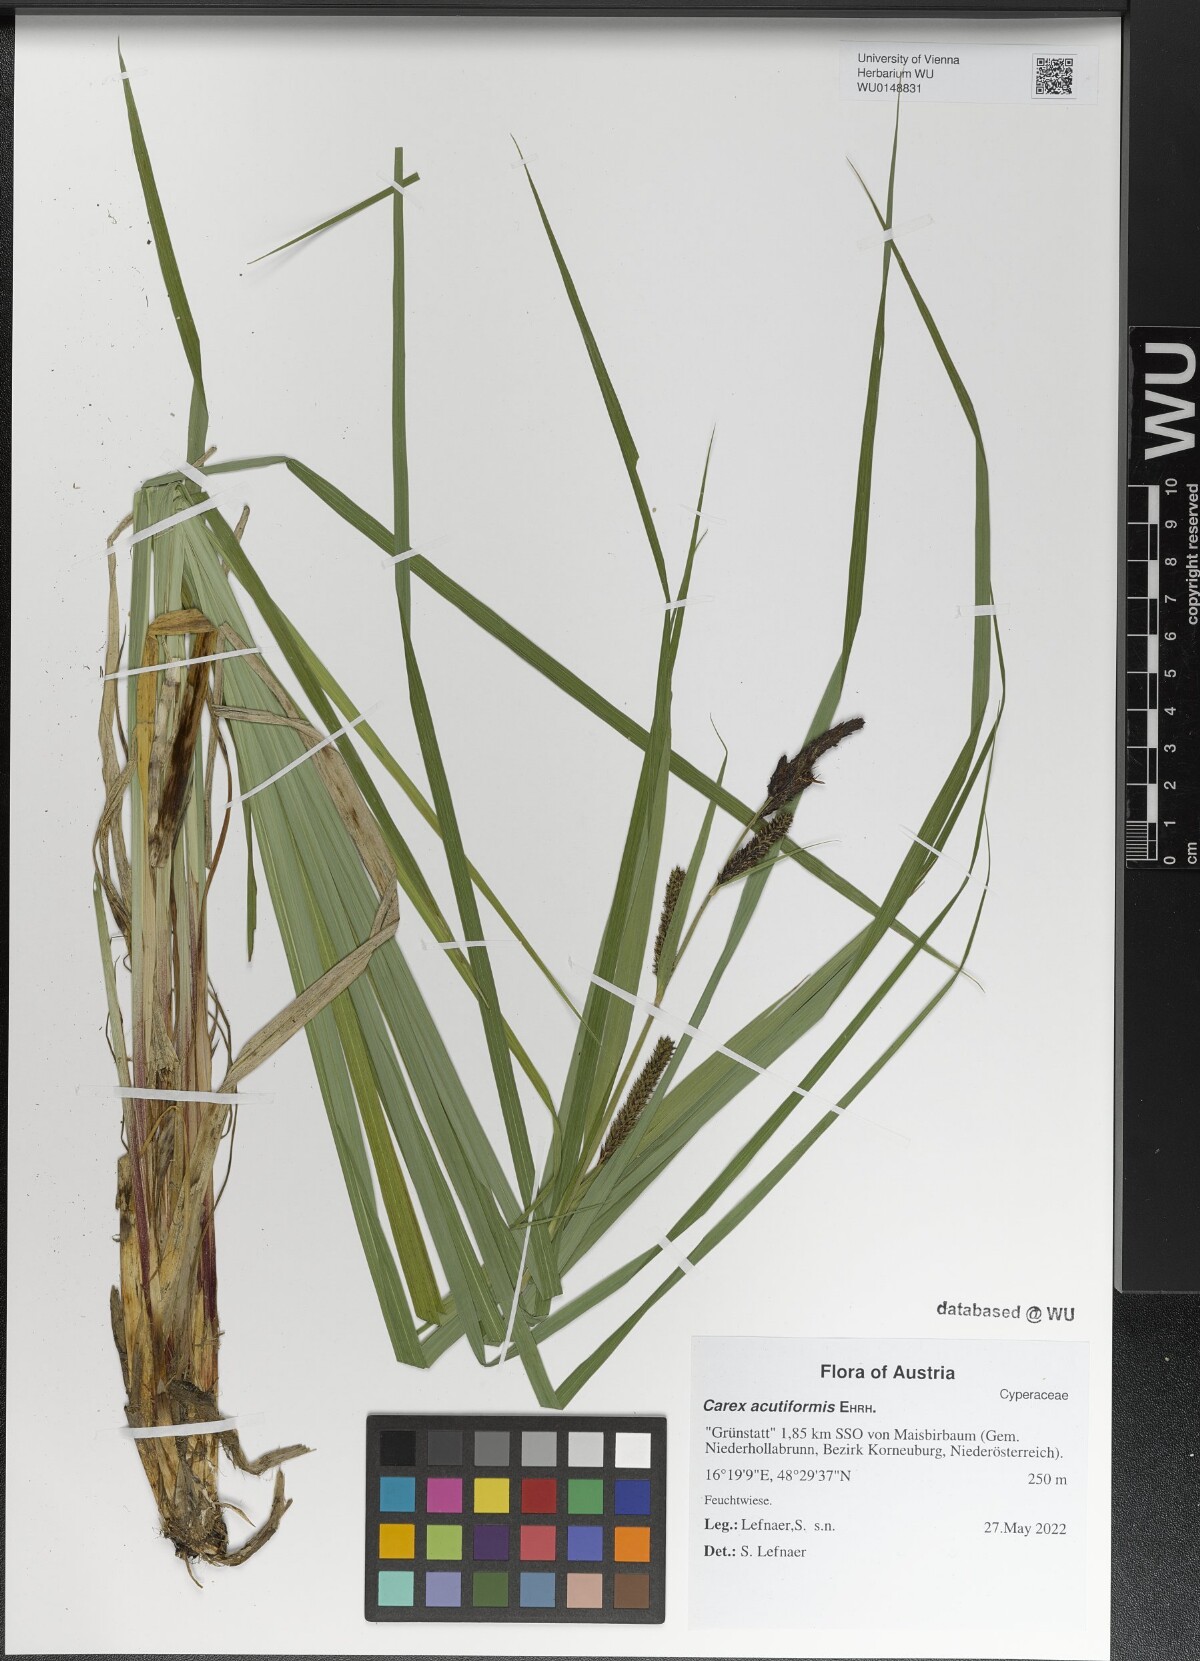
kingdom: Plantae
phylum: Tracheophyta
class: Liliopsida
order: Poales
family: Cyperaceae
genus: Carex
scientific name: Carex acutiformis
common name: Lesser pond-sedge
